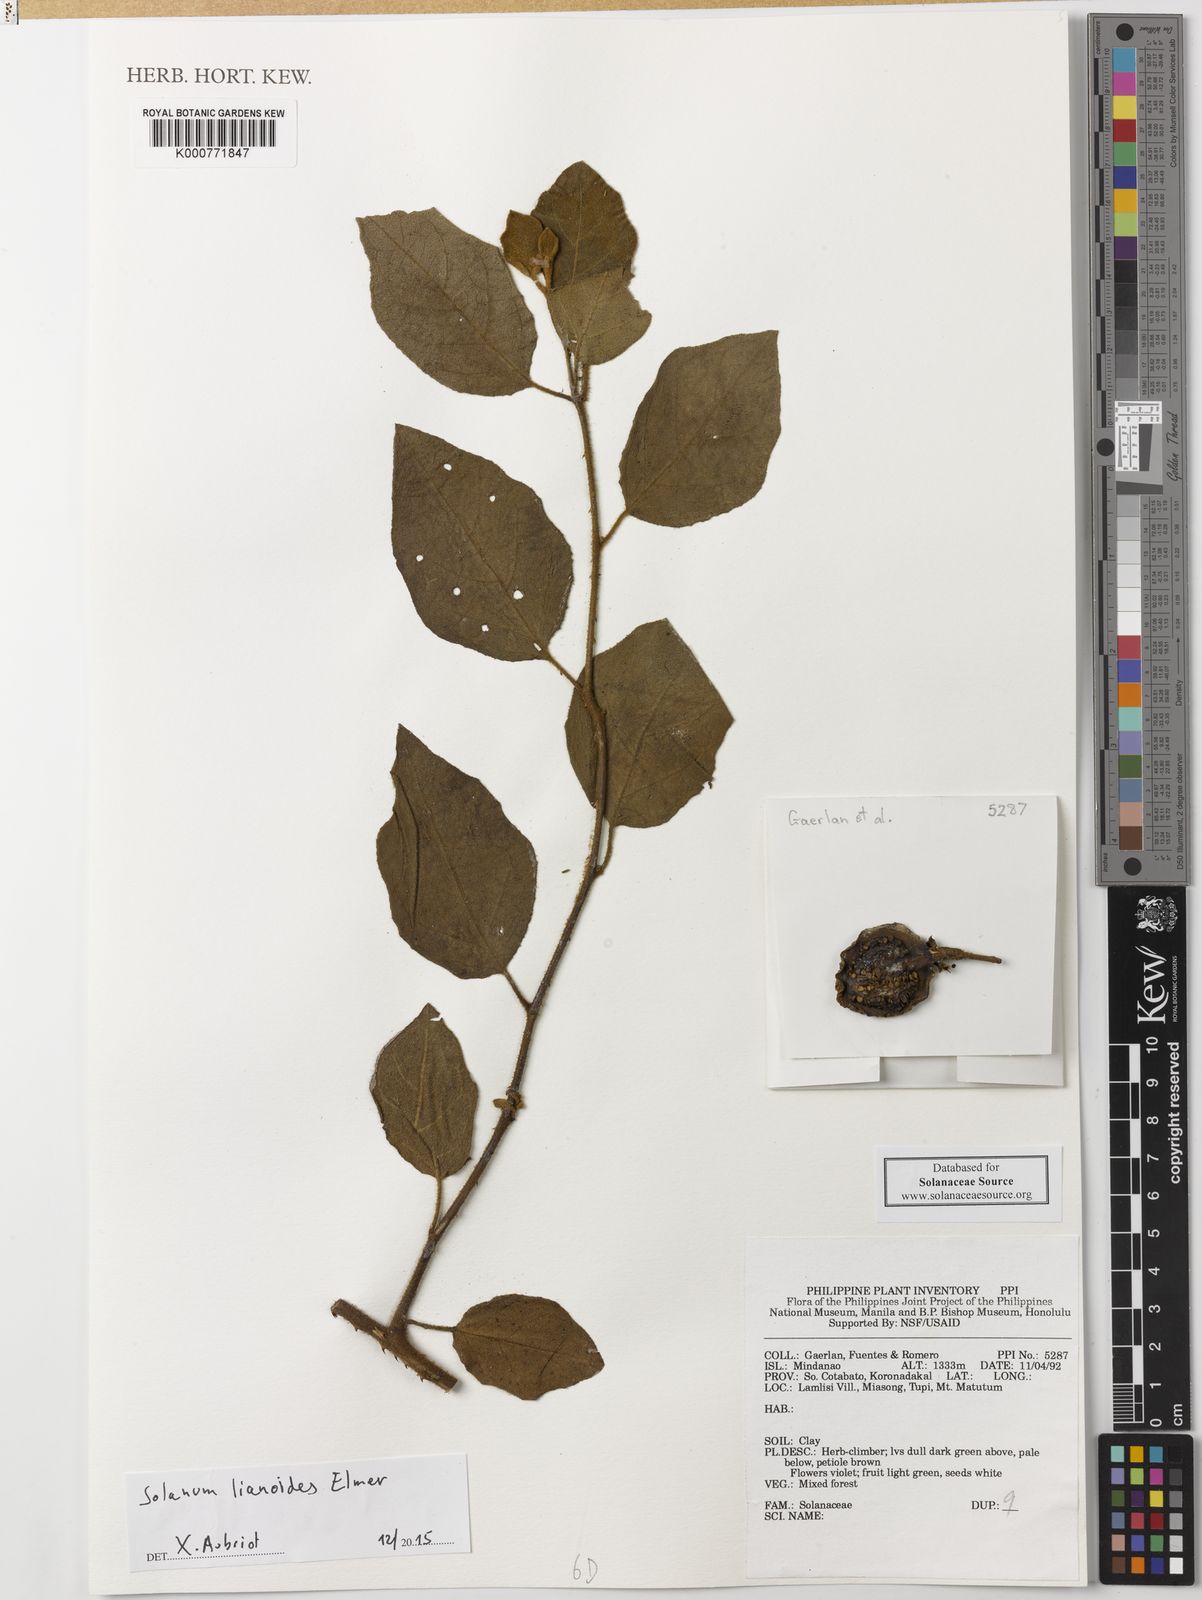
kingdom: Plantae
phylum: Tracheophyta
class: Magnoliopsida
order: Solanales
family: Solanaceae
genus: Solanum
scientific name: Solanum schefferi
